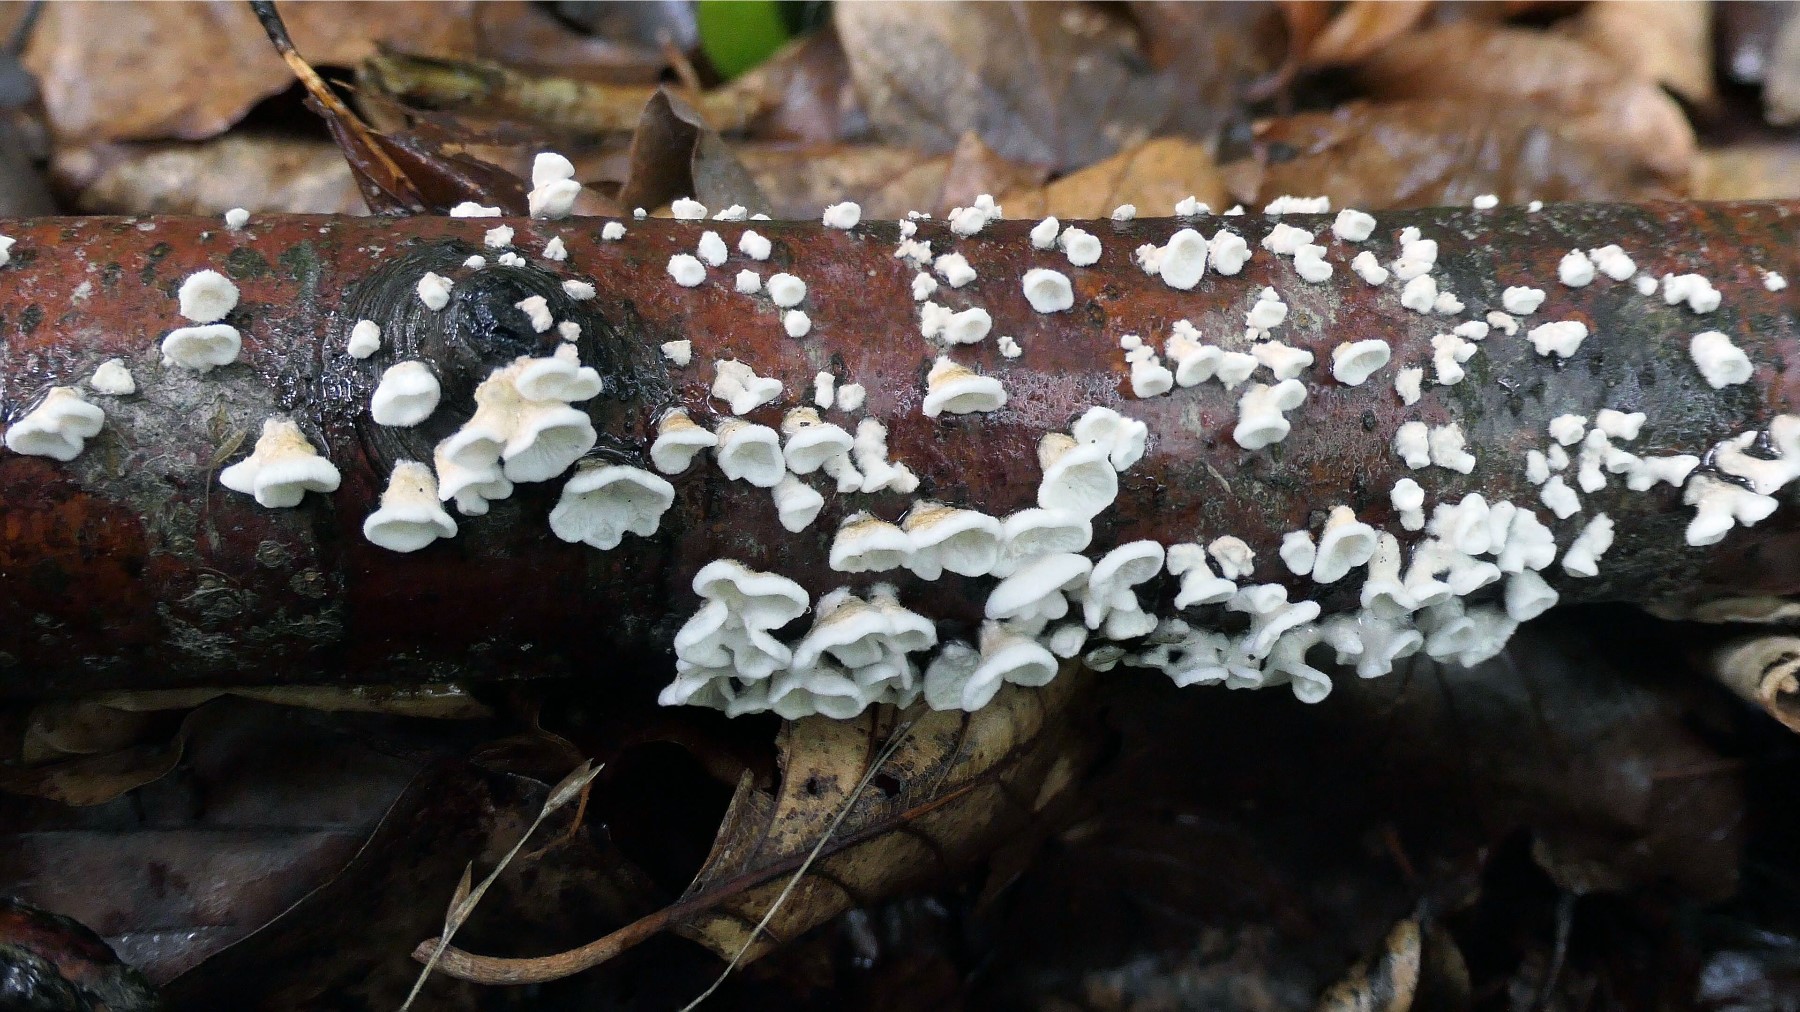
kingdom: Fungi
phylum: Basidiomycota
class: Agaricomycetes
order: Amylocorticiales
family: Amylocorticiaceae
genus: Plicaturopsis
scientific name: Plicaturopsis crispa
